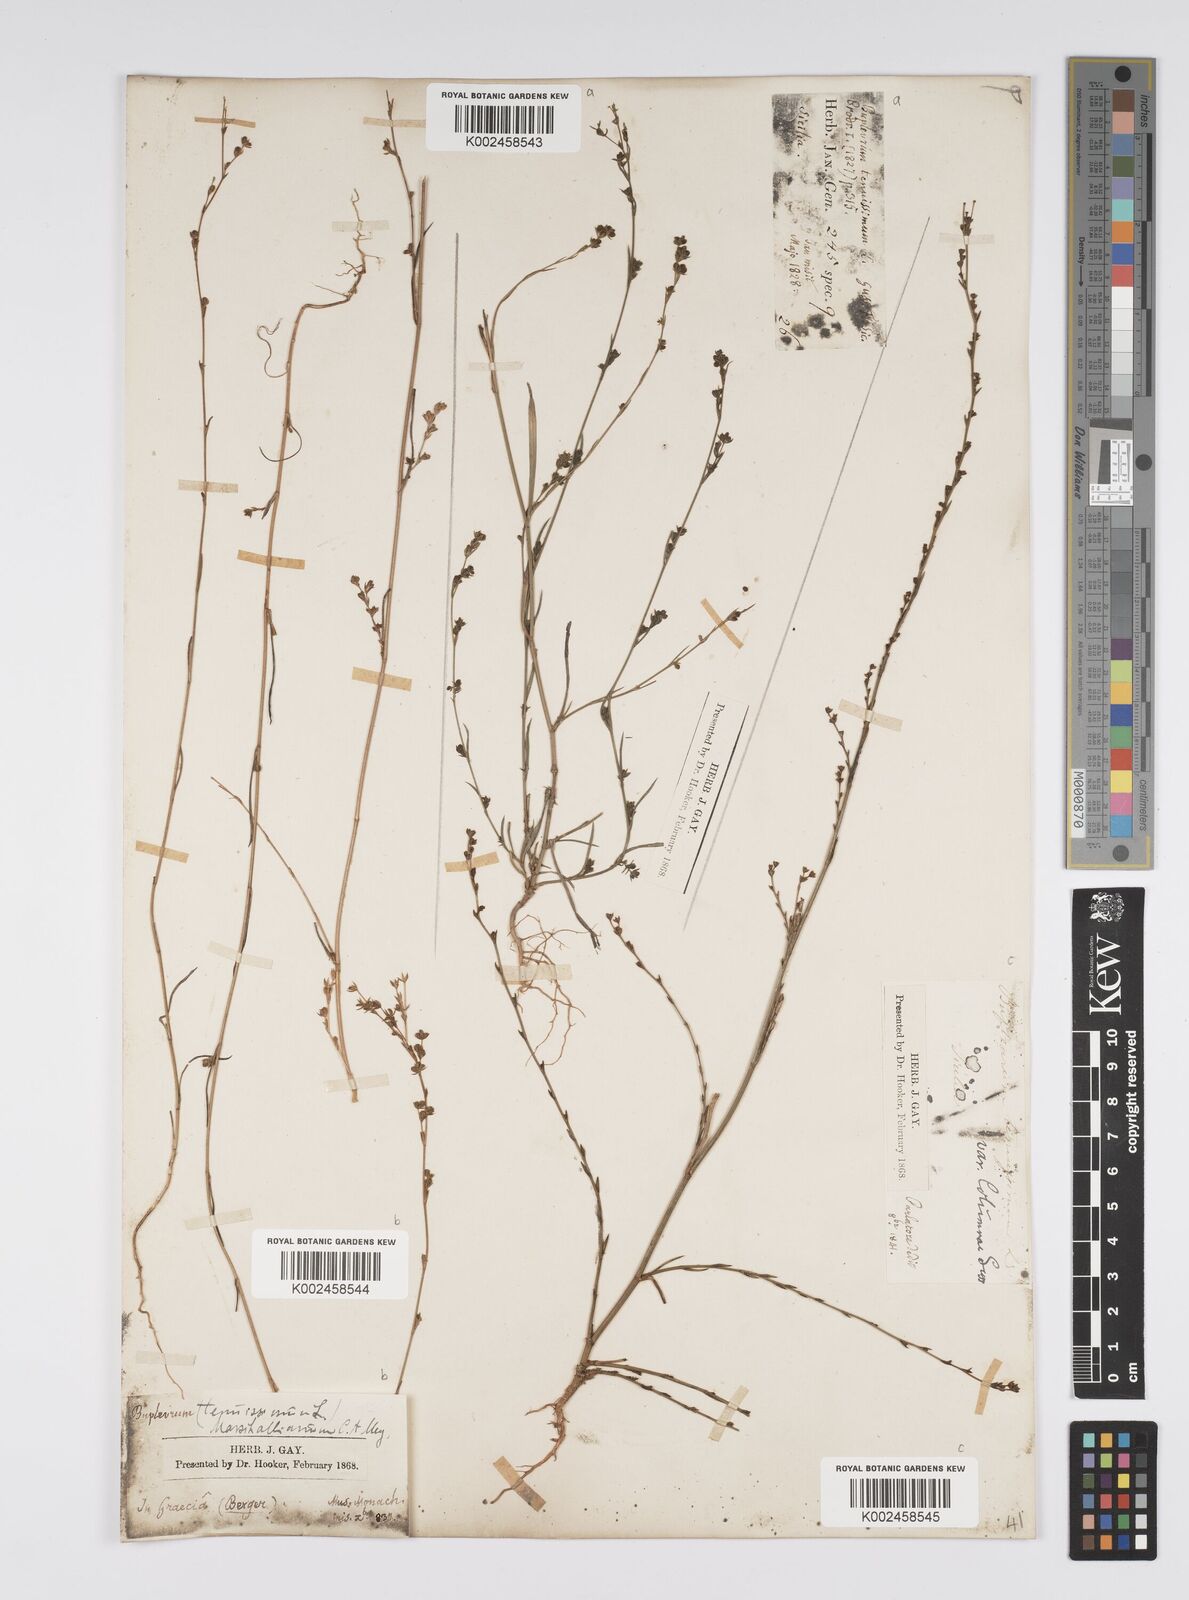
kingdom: Plantae
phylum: Tracheophyta
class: Magnoliopsida
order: Apiales
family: Apiaceae
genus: Bupleurum
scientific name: Bupleurum tenuissimum
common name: Slender hare's-ear
